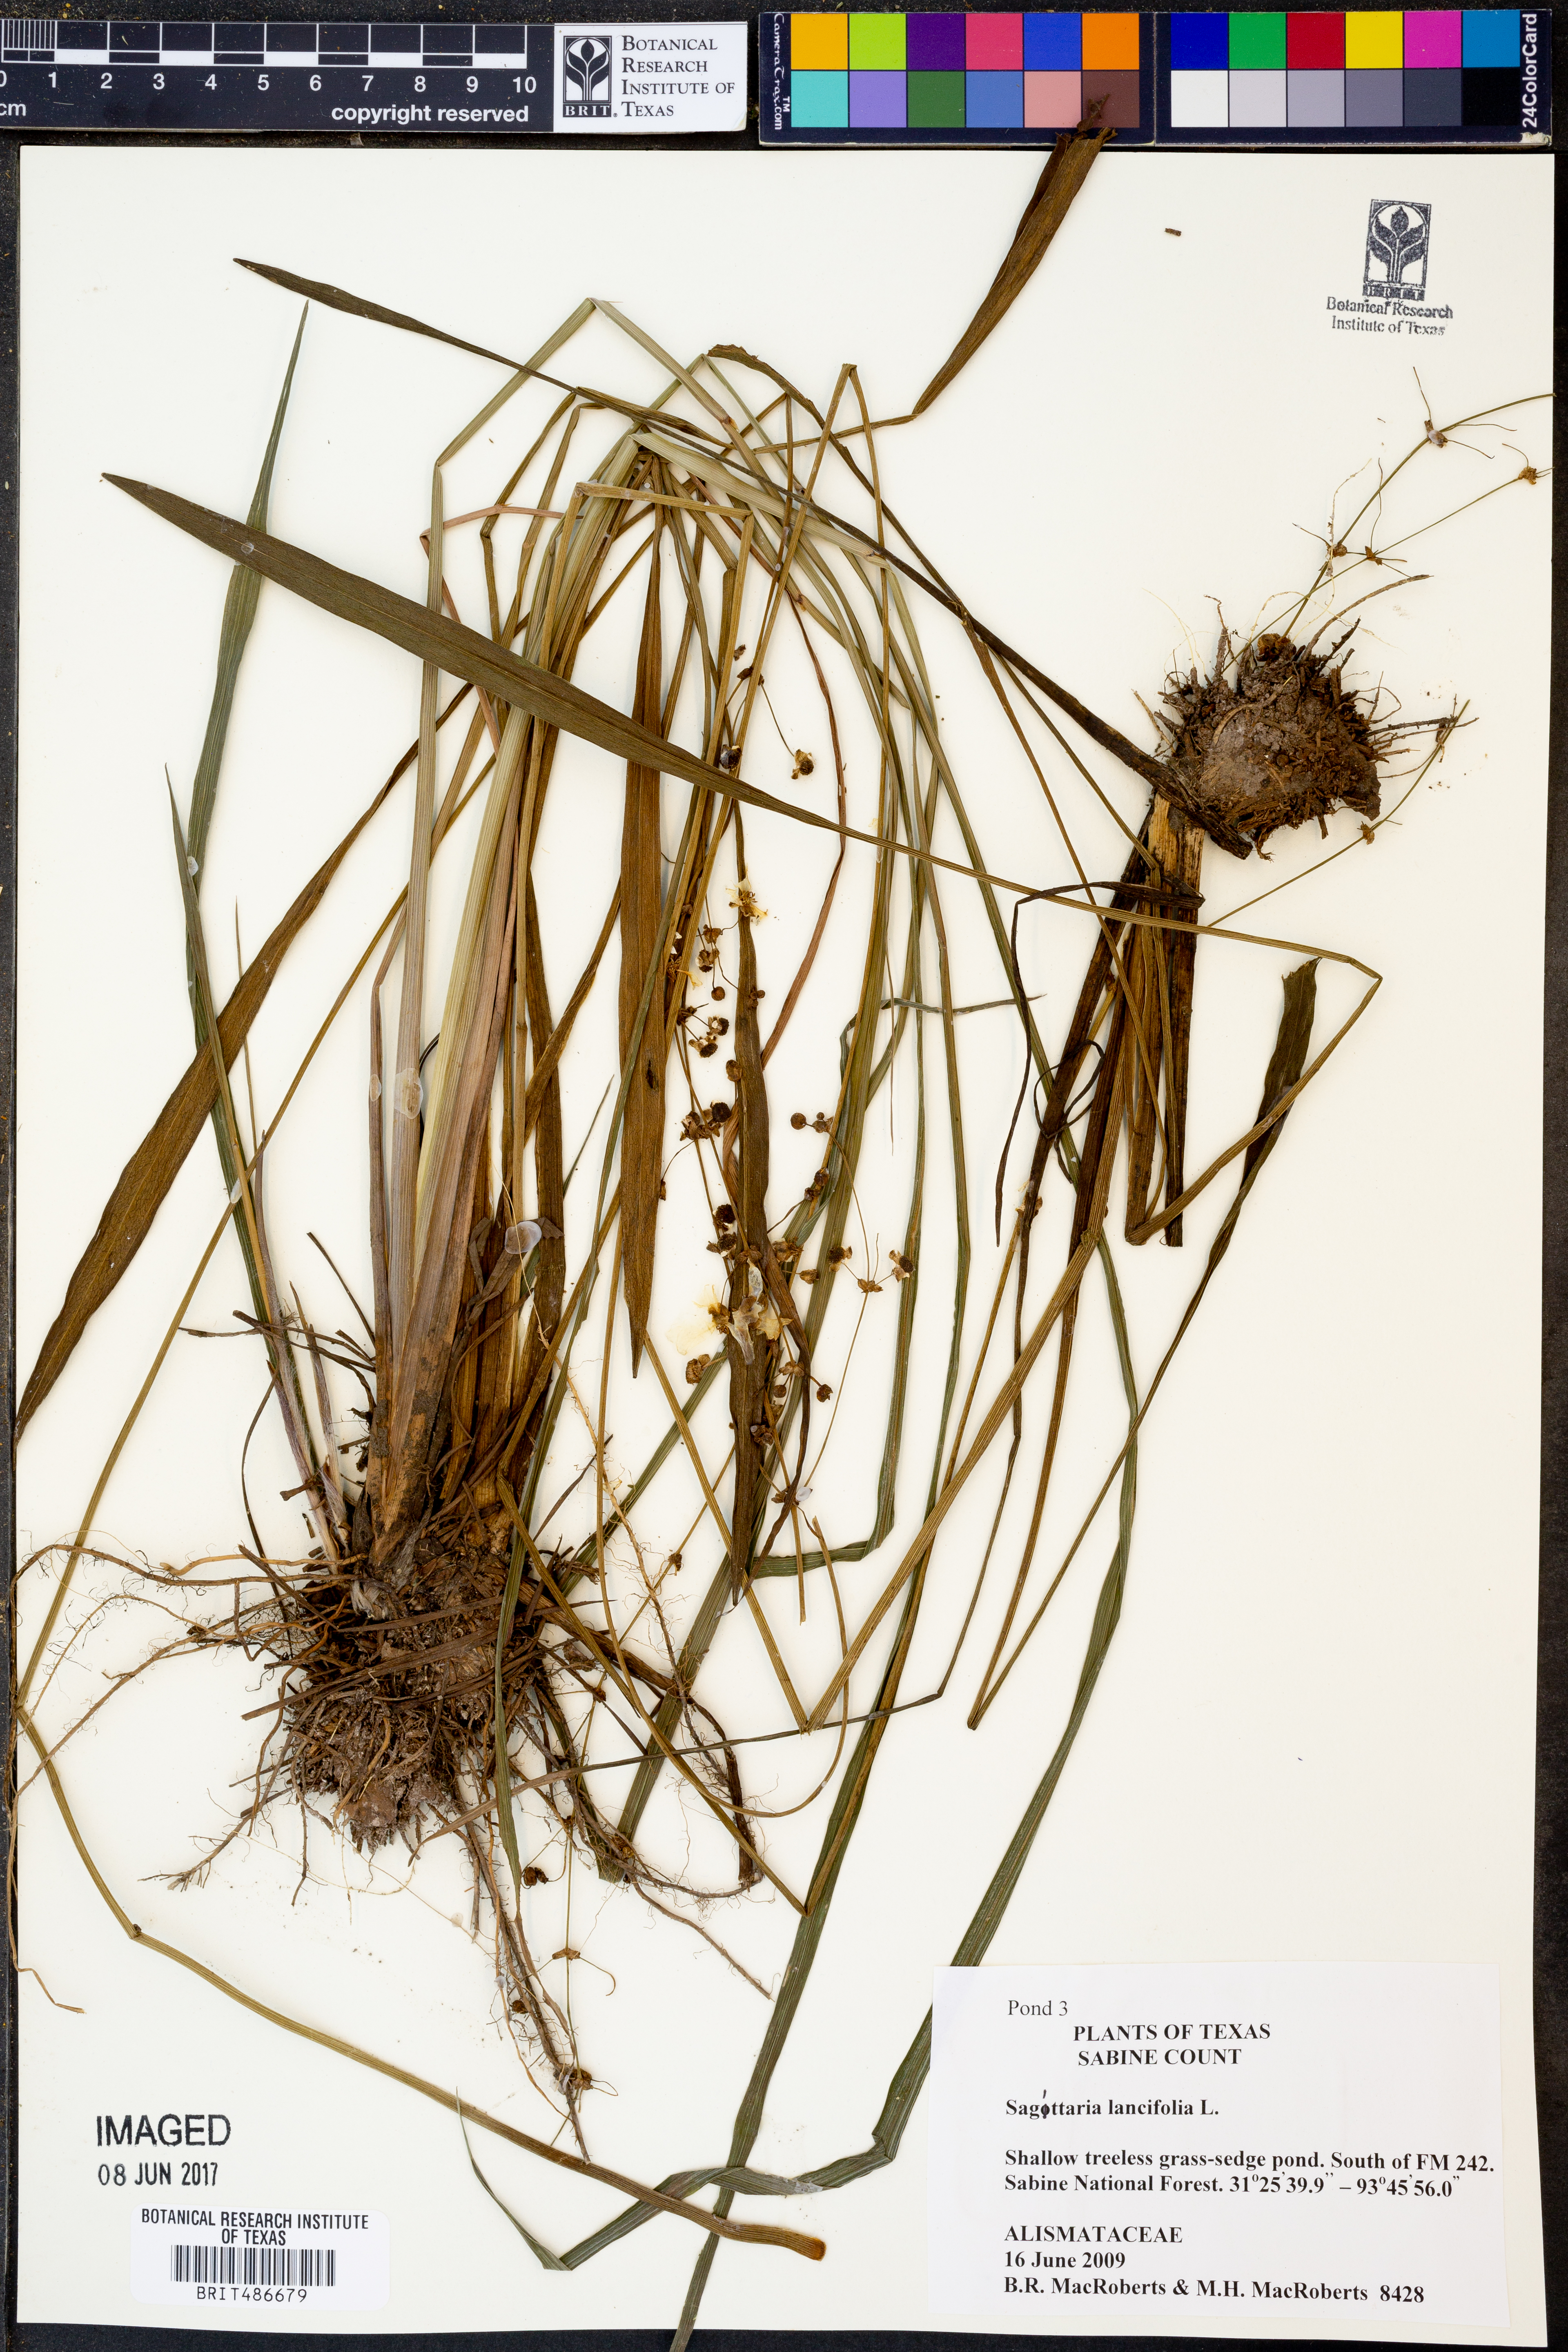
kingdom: Plantae
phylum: Tracheophyta
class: Liliopsida
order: Alismatales
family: Alismataceae
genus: Sagittaria
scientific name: Sagittaria lancifolia
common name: Lance-leaf arrowhead
